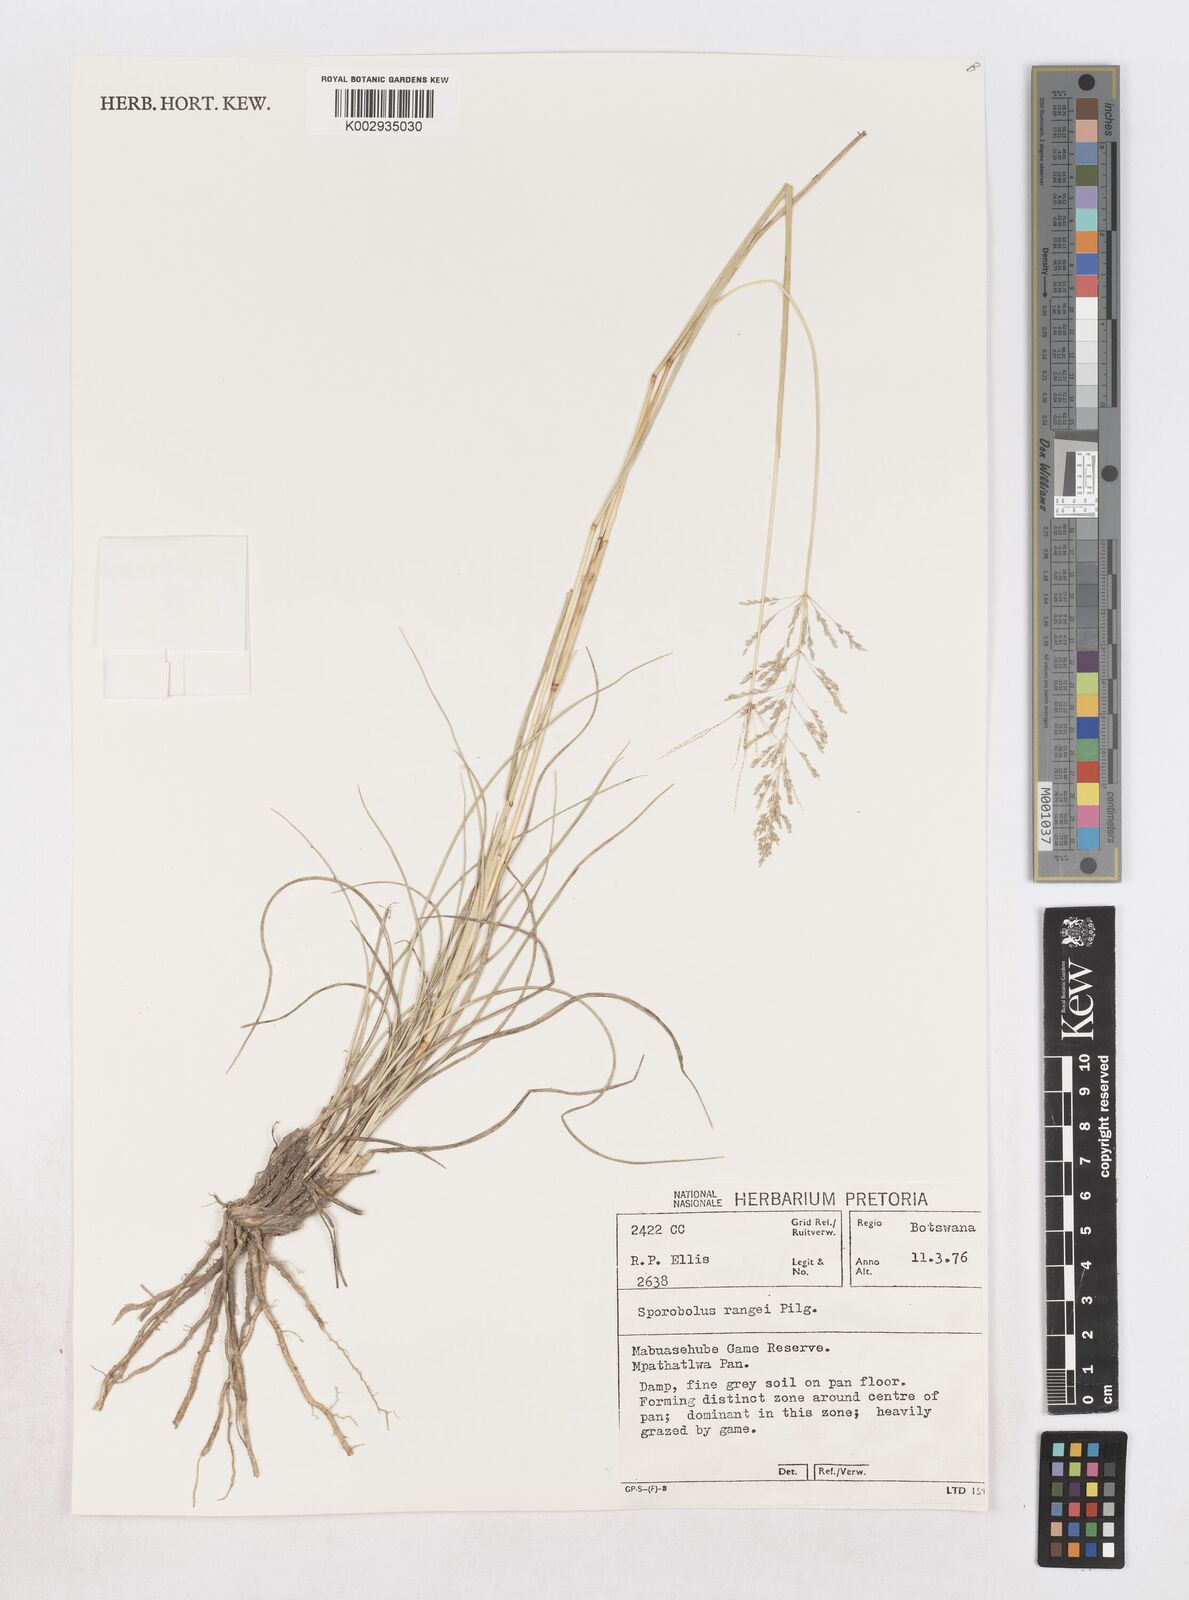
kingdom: Plantae
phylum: Tracheophyta
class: Liliopsida
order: Poales
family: Poaceae
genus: Sporobolus
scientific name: Sporobolus ioclados
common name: Pan dropseed
